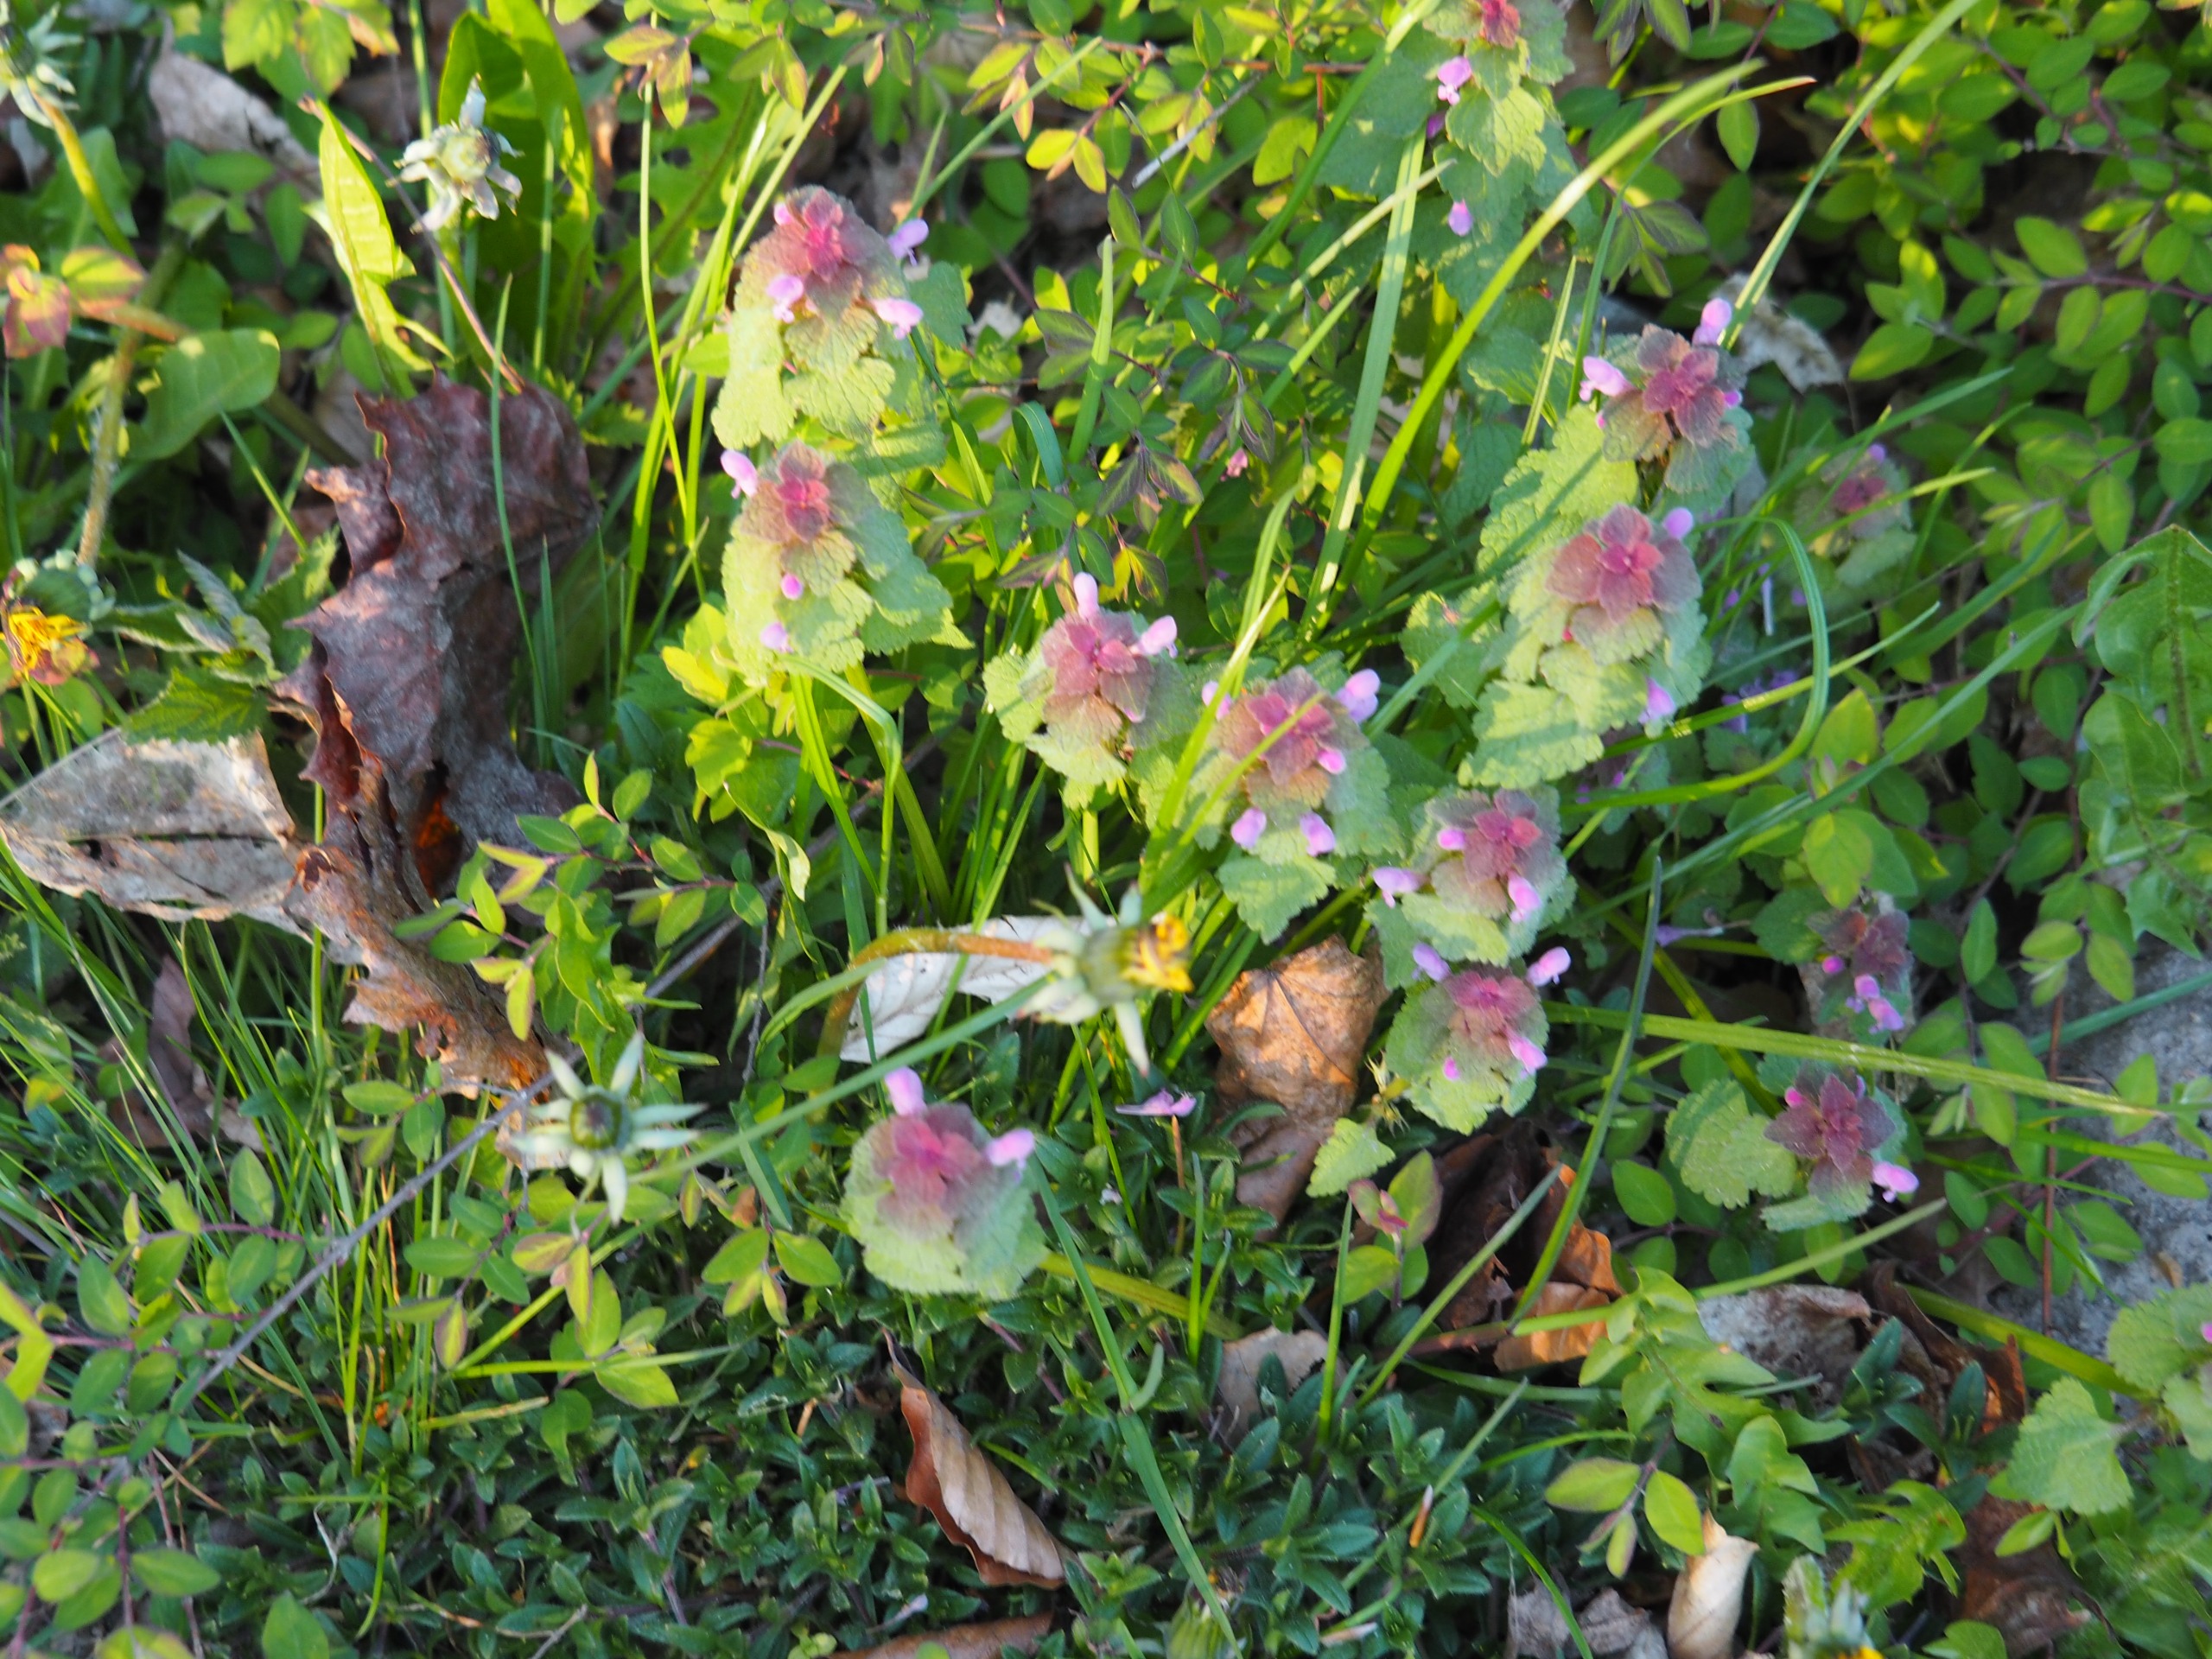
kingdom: Plantae
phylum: Tracheophyta
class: Magnoliopsida
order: Lamiales
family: Lamiaceae
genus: Lamium
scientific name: Lamium purpureum
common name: Rød tvetand
